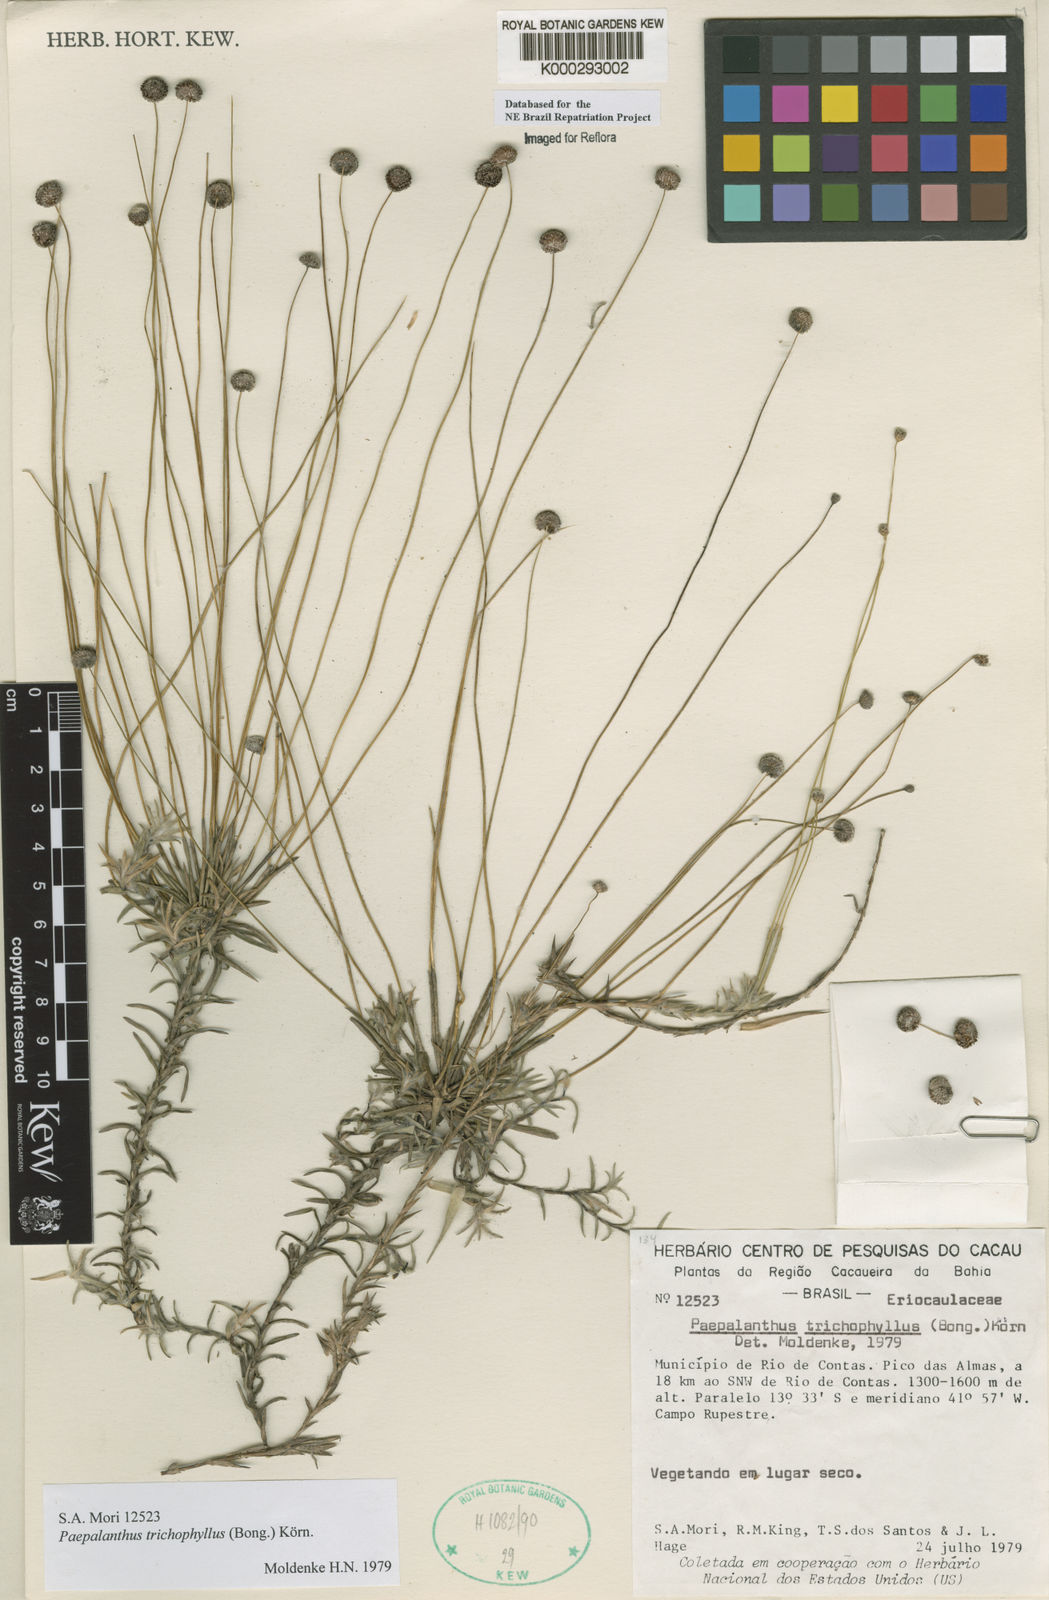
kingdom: Plantae
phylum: Tracheophyta
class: Liliopsida
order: Poales
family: Eriocaulaceae
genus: Paepalanthus
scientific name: Paepalanthus
